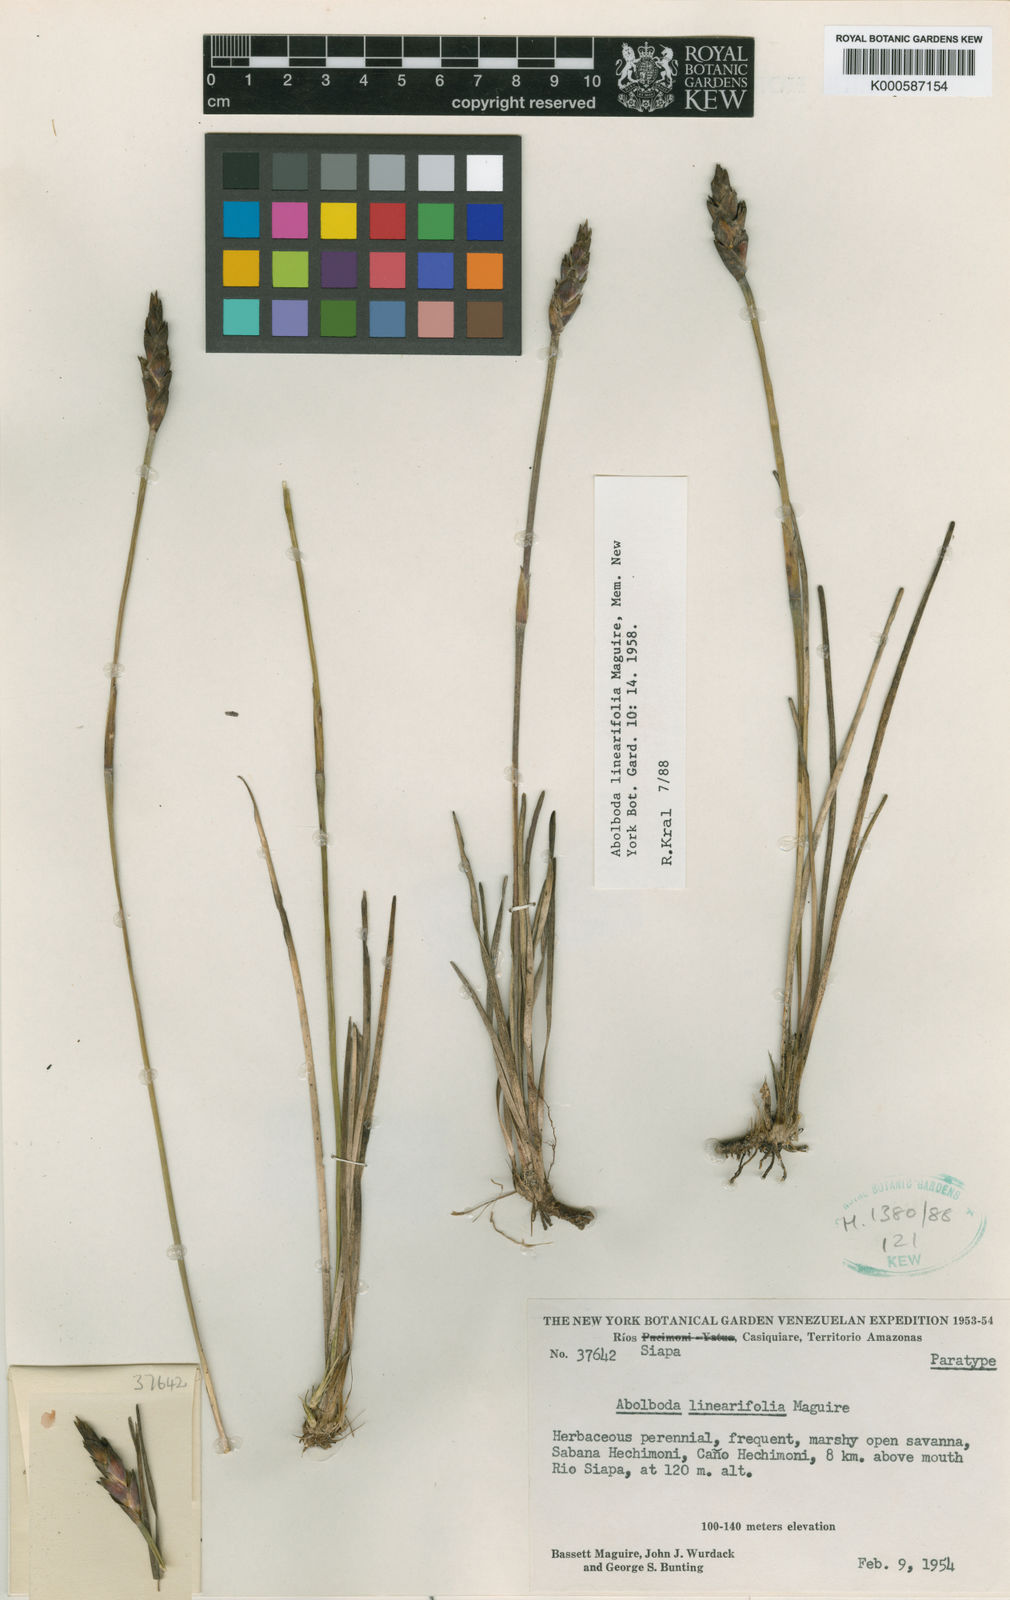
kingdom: Plantae
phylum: Tracheophyta
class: Liliopsida
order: Poales
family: Xyridaceae
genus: Abolboda
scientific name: Abolboda linearifolia
